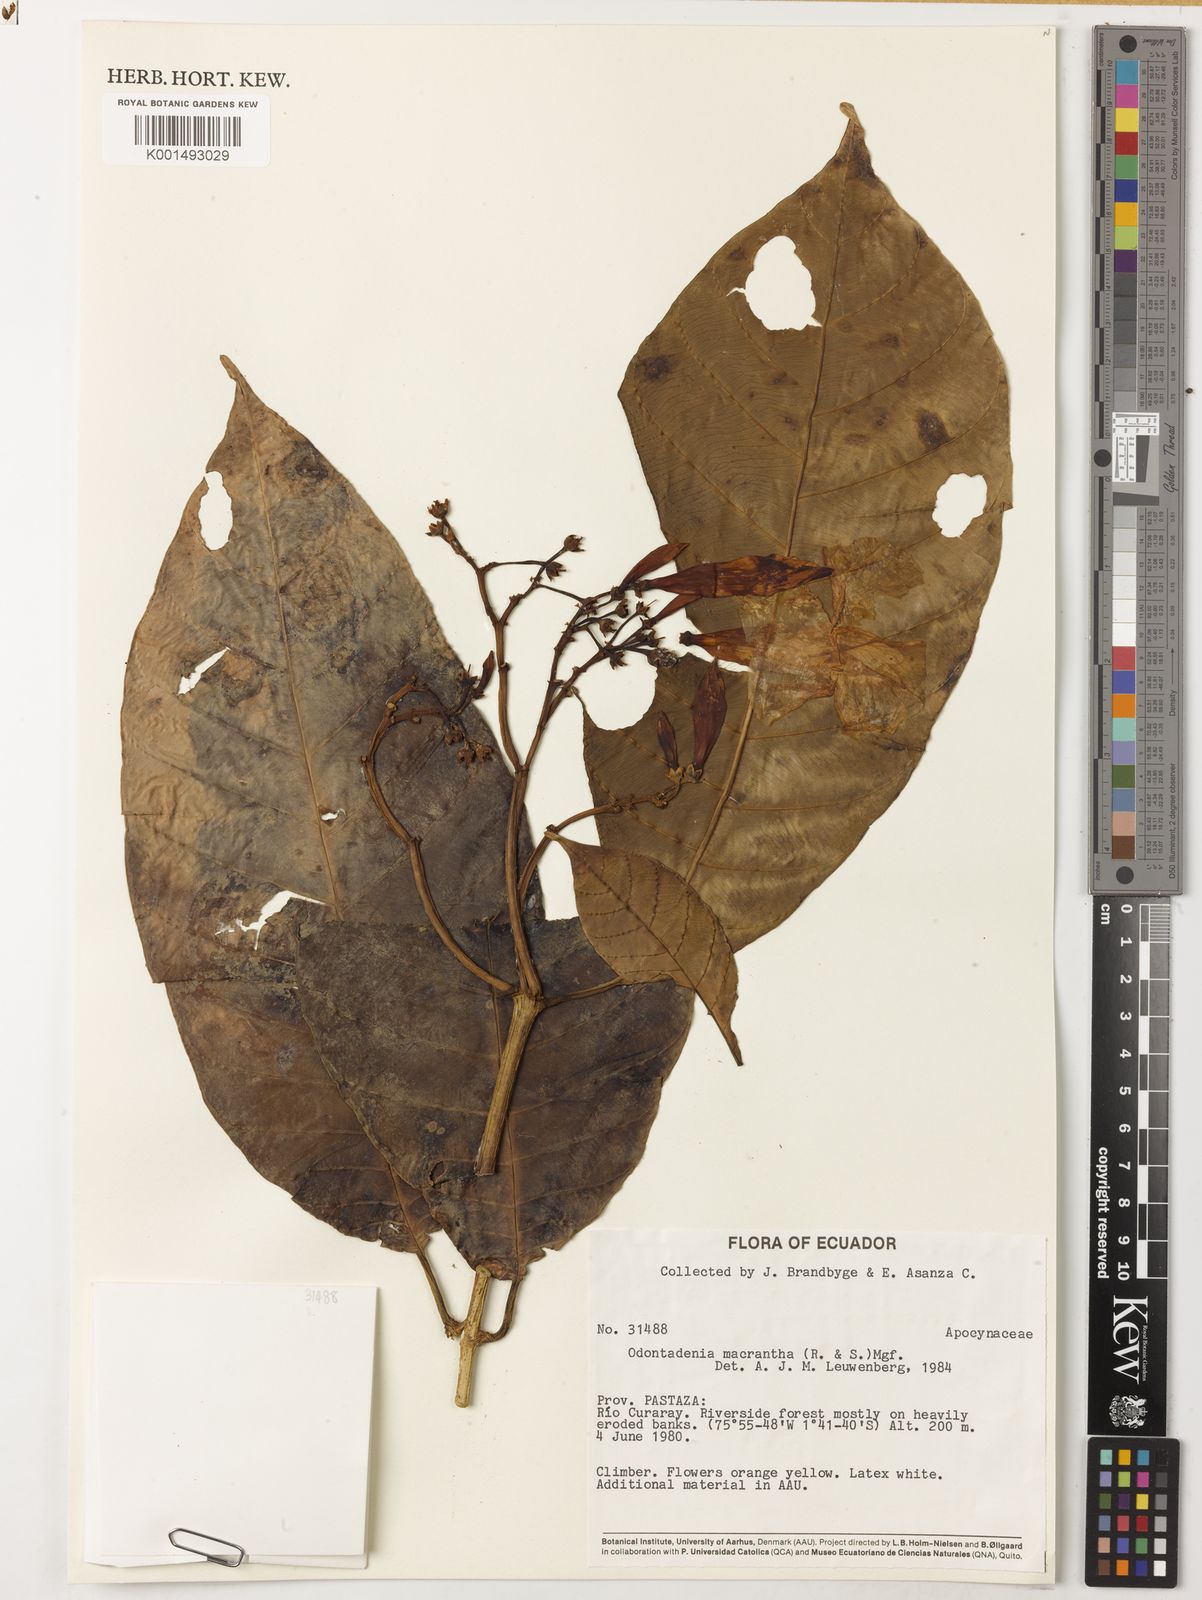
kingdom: Plantae
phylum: Tracheophyta
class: Magnoliopsida
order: Gentianales
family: Apocynaceae
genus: Odontadenia
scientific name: Odontadenia semidigyna
